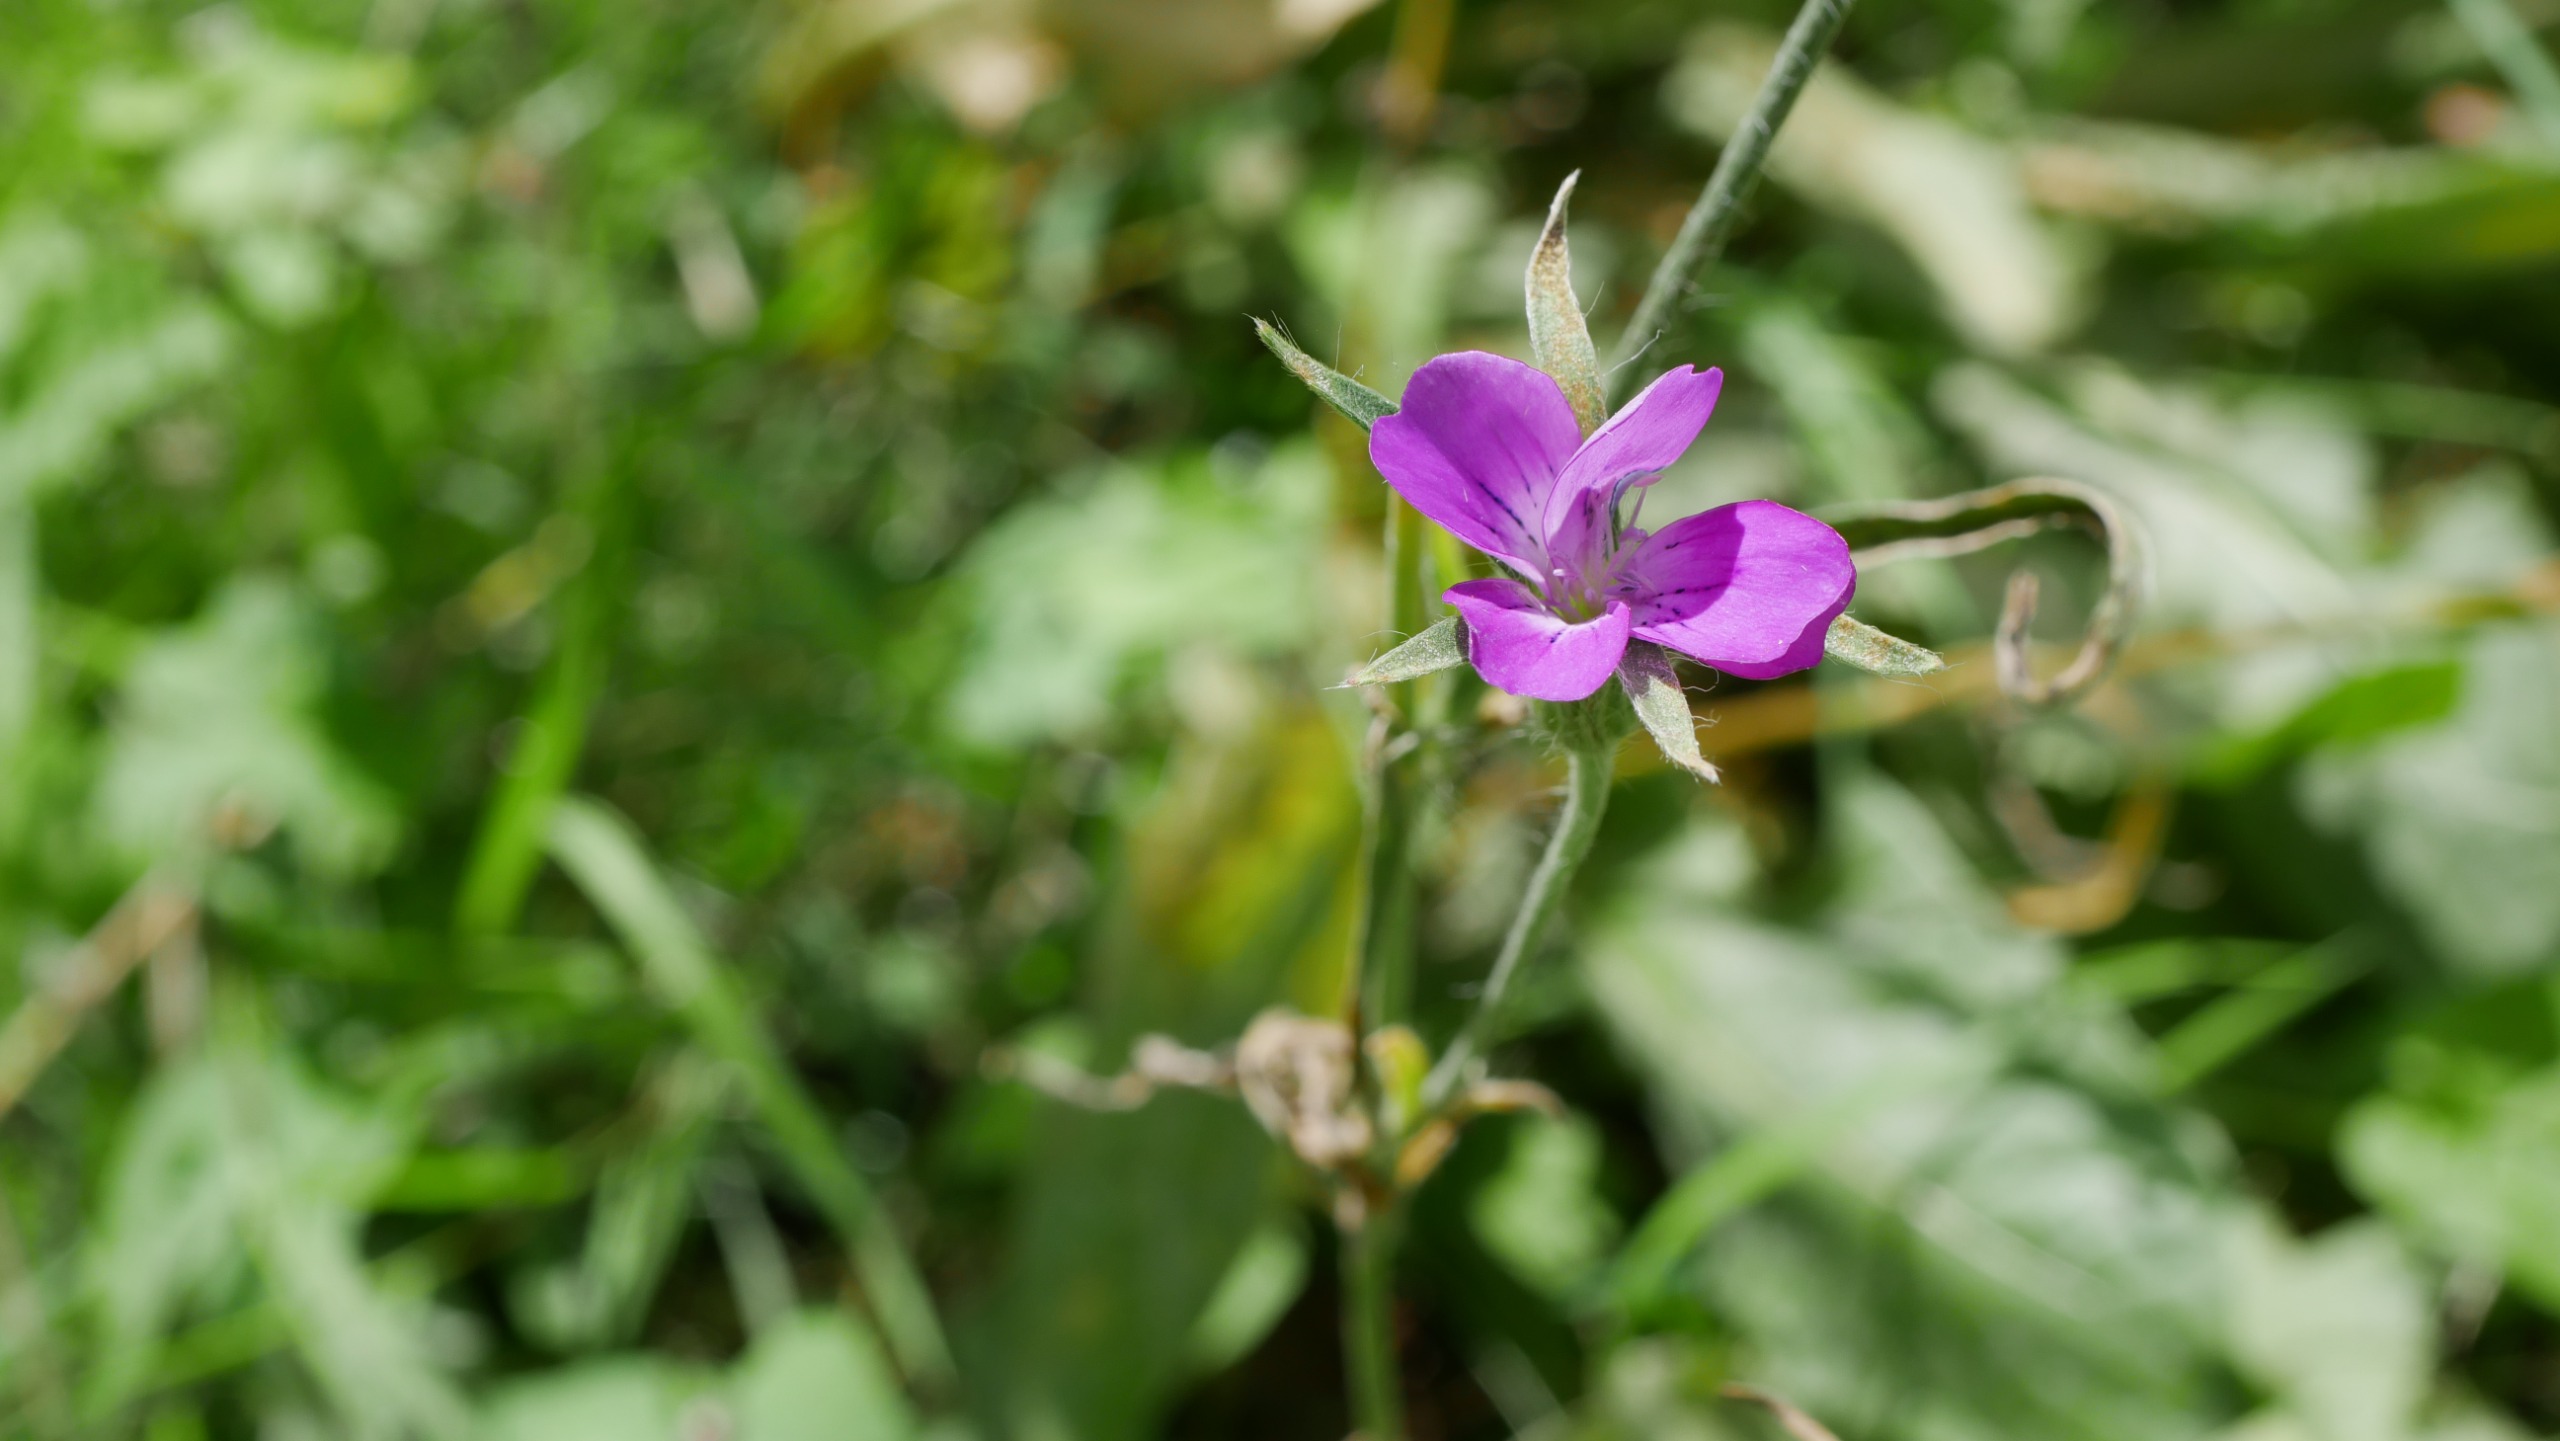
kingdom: Plantae
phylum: Tracheophyta
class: Magnoliopsida
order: Caryophyllales
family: Caryophyllaceae
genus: Agrostemma
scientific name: Agrostemma githago
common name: Klinte
